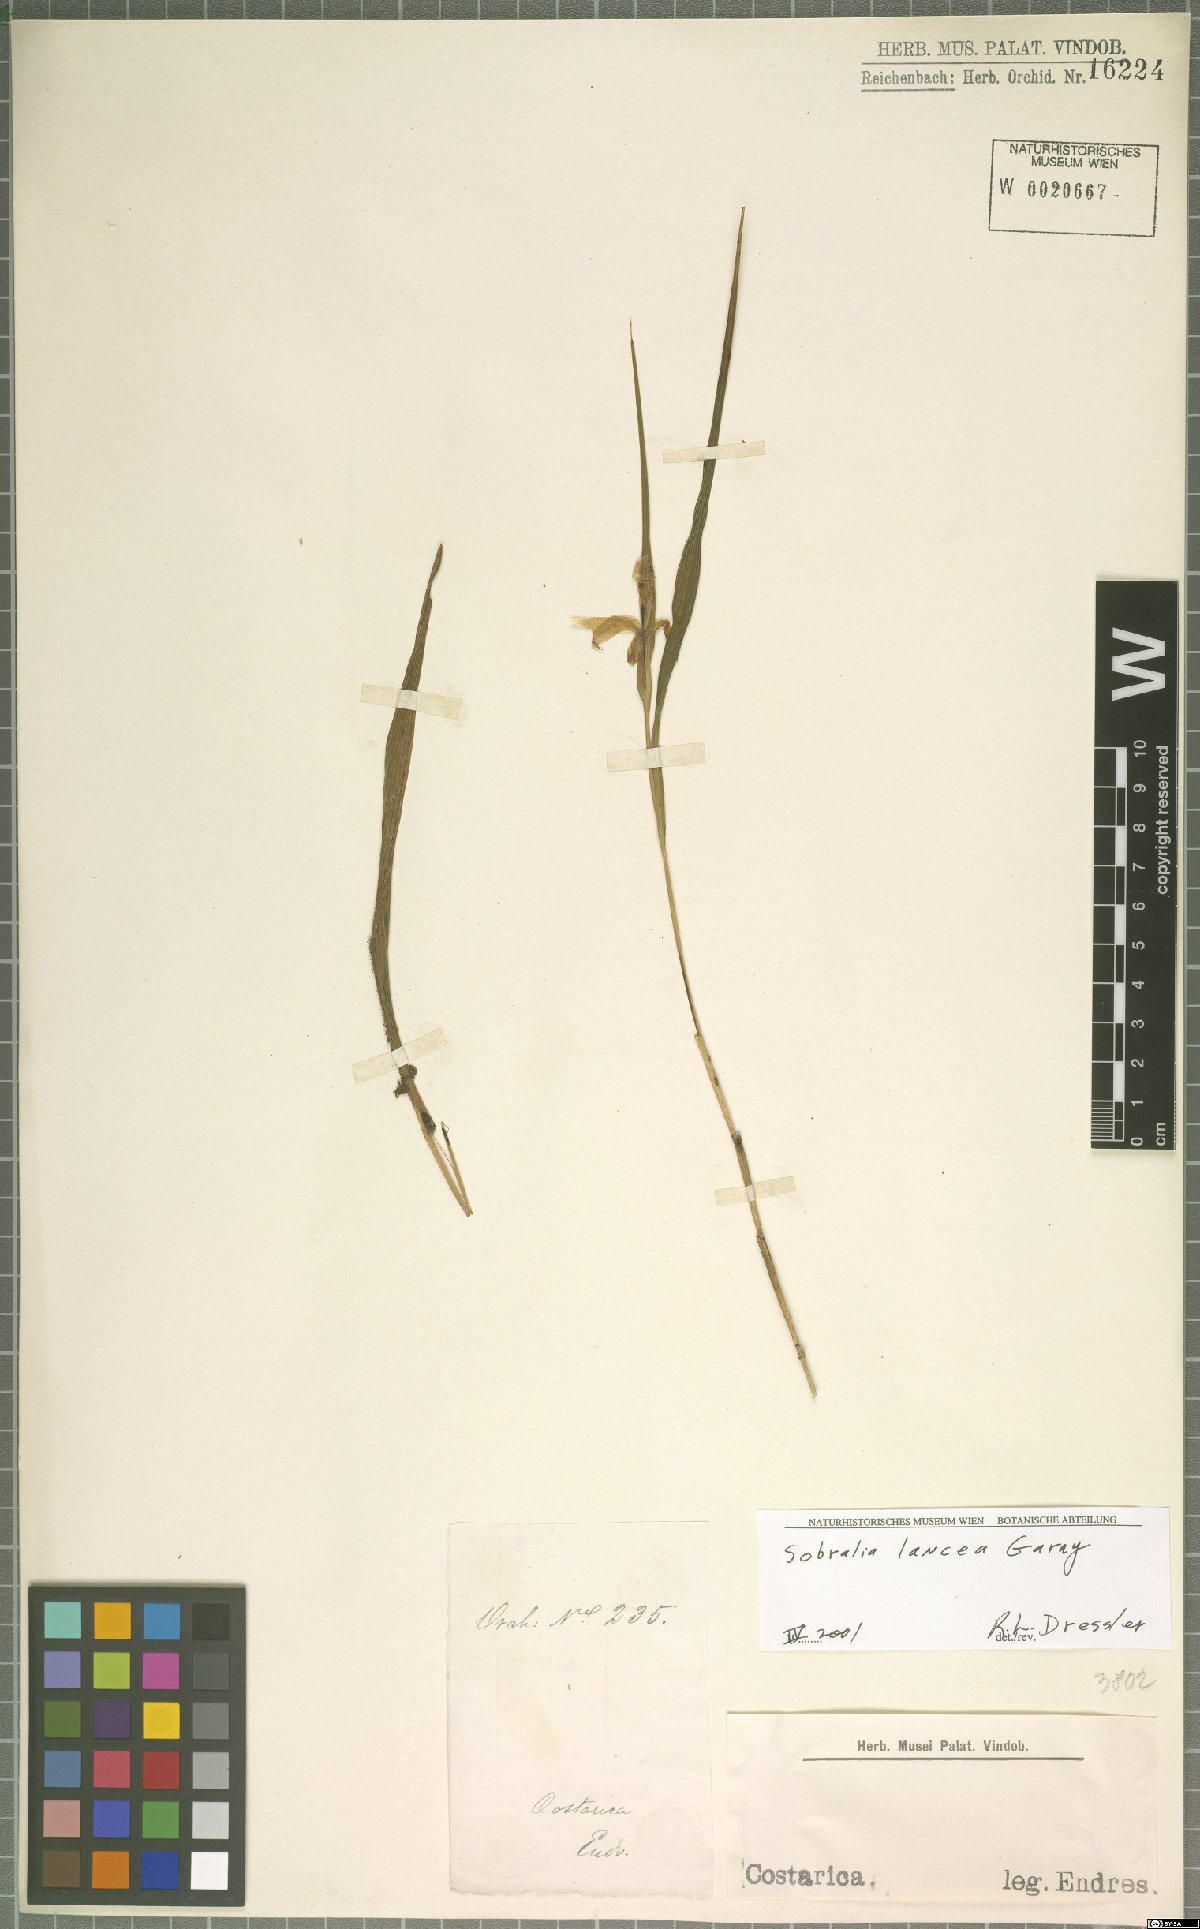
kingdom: Plantae
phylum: Tracheophyta
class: Liliopsida
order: Asparagales
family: Orchidaceae
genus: Sobralia
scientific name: Sobralia lancea
